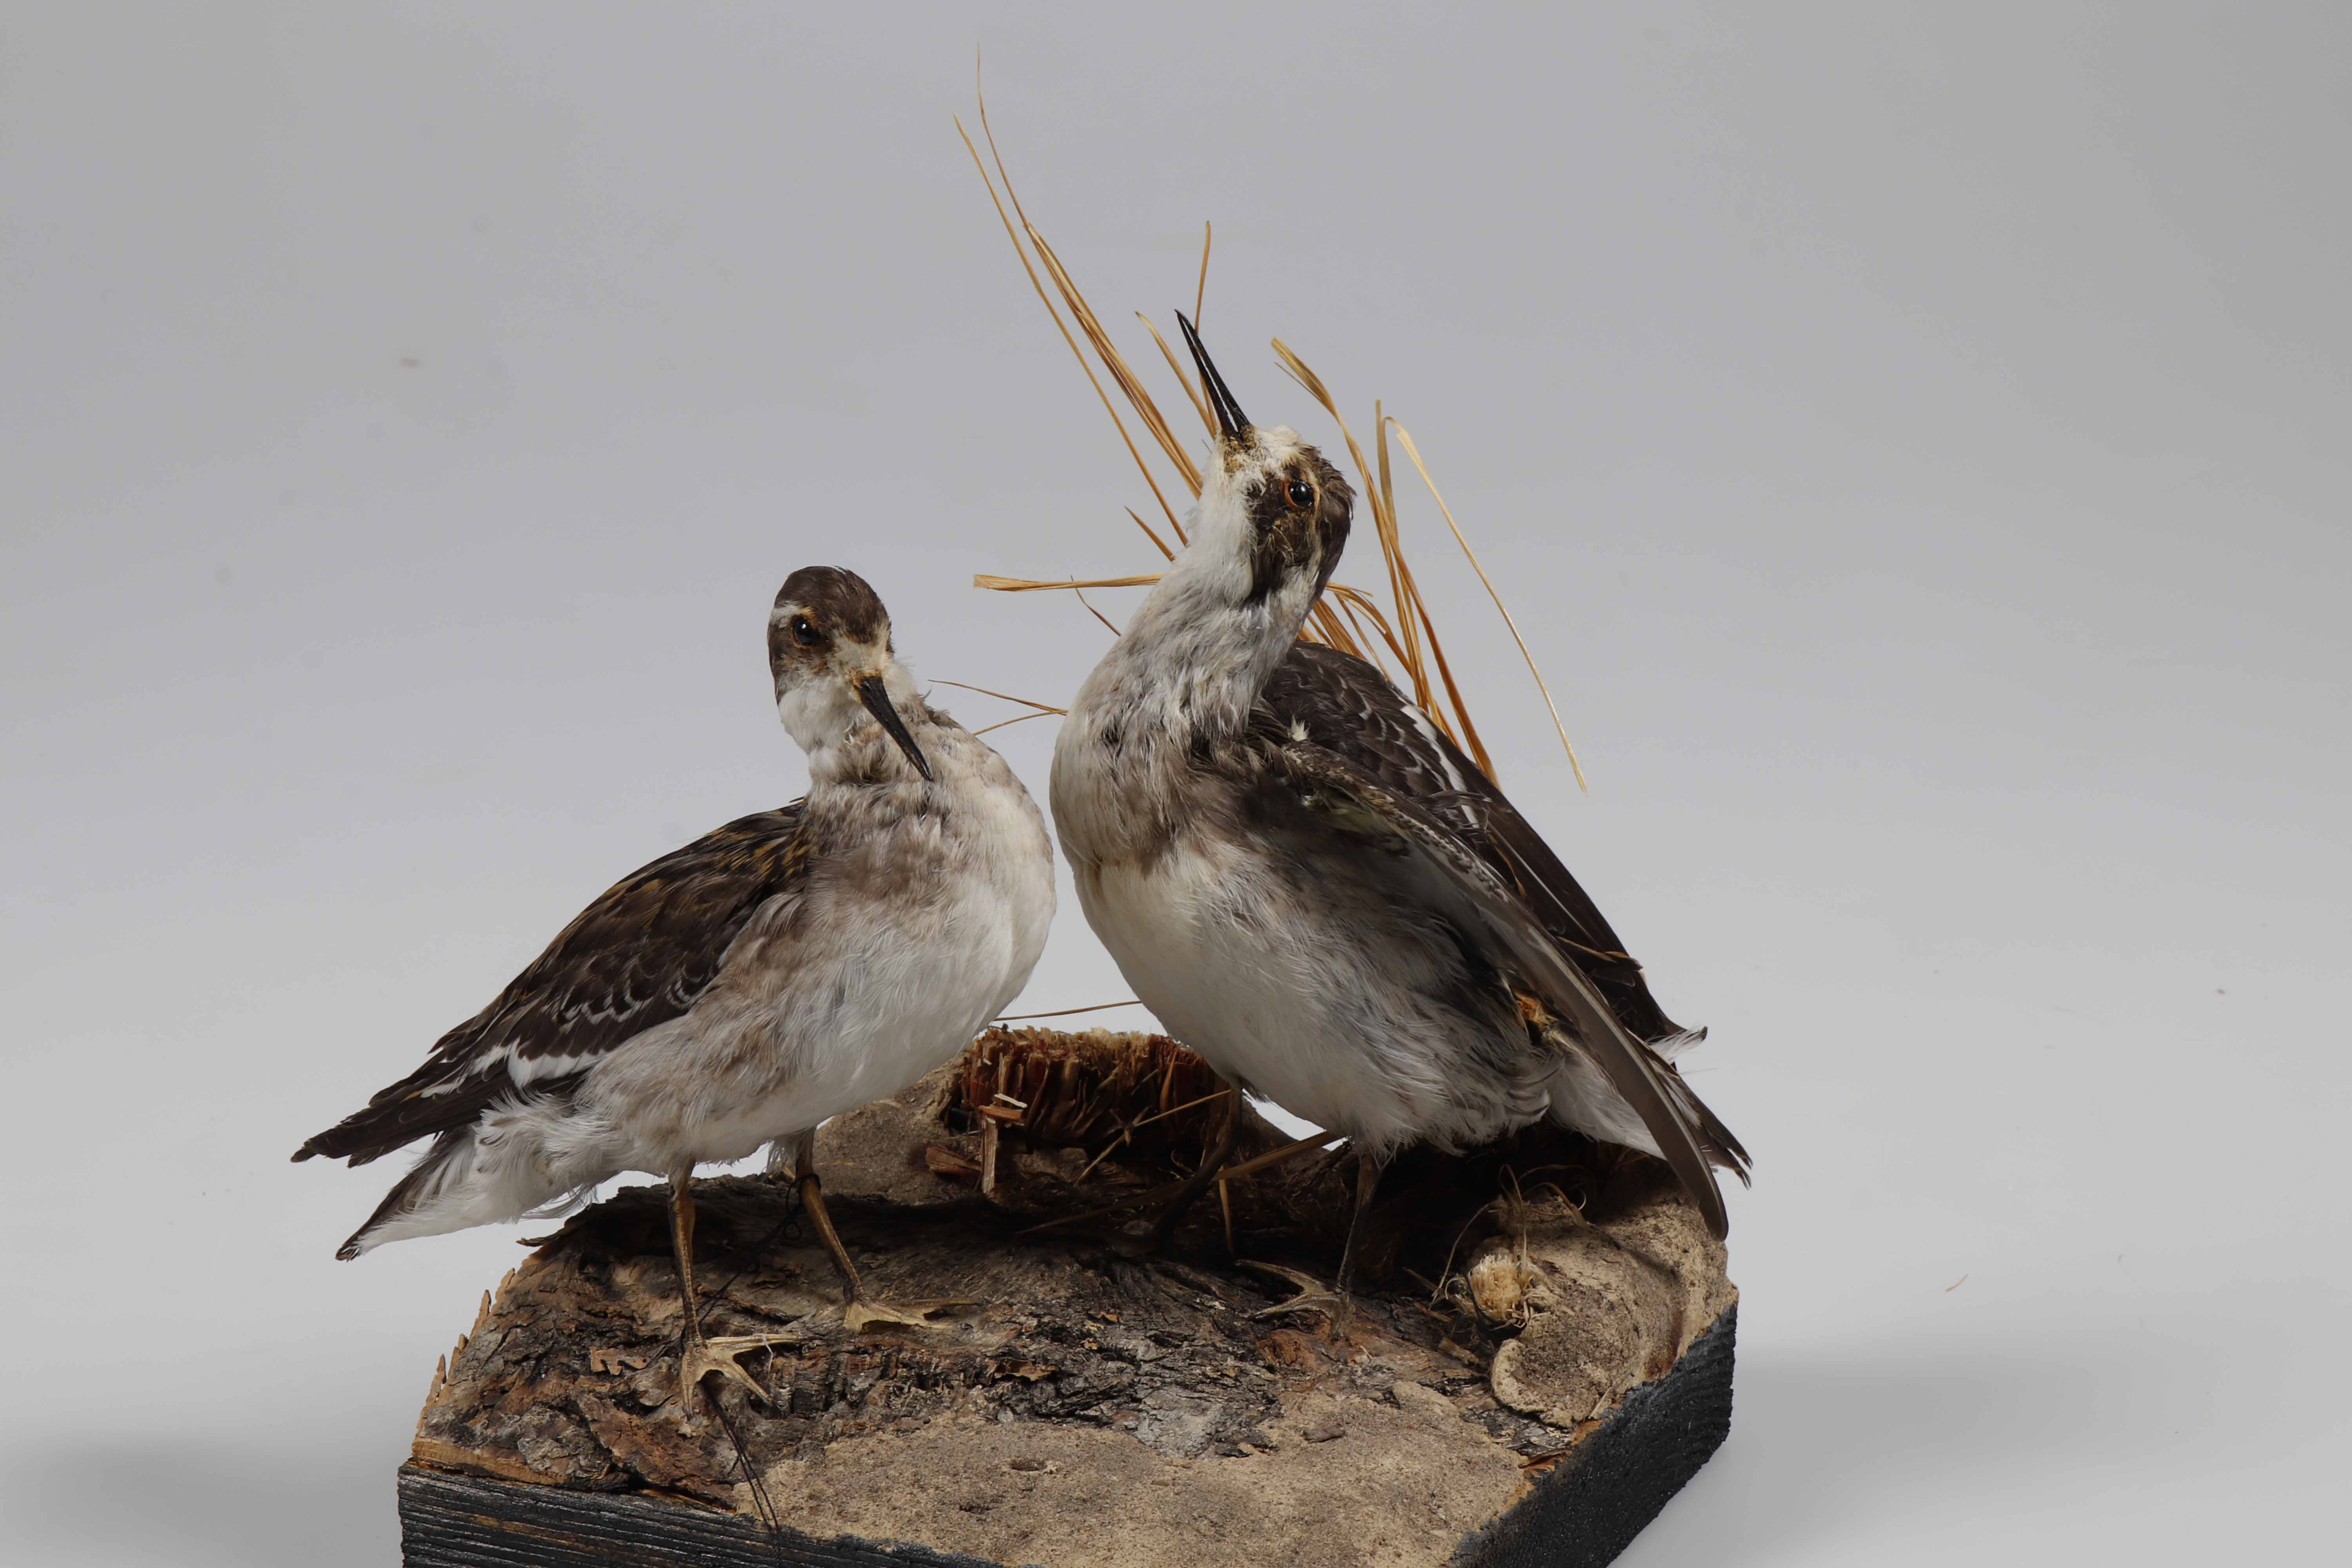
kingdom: Animalia
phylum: Chordata
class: Aves
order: Charadriiformes
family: Scolopacidae
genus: Phalaropus
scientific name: Phalaropus lobatus
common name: Red-necked phalarope
